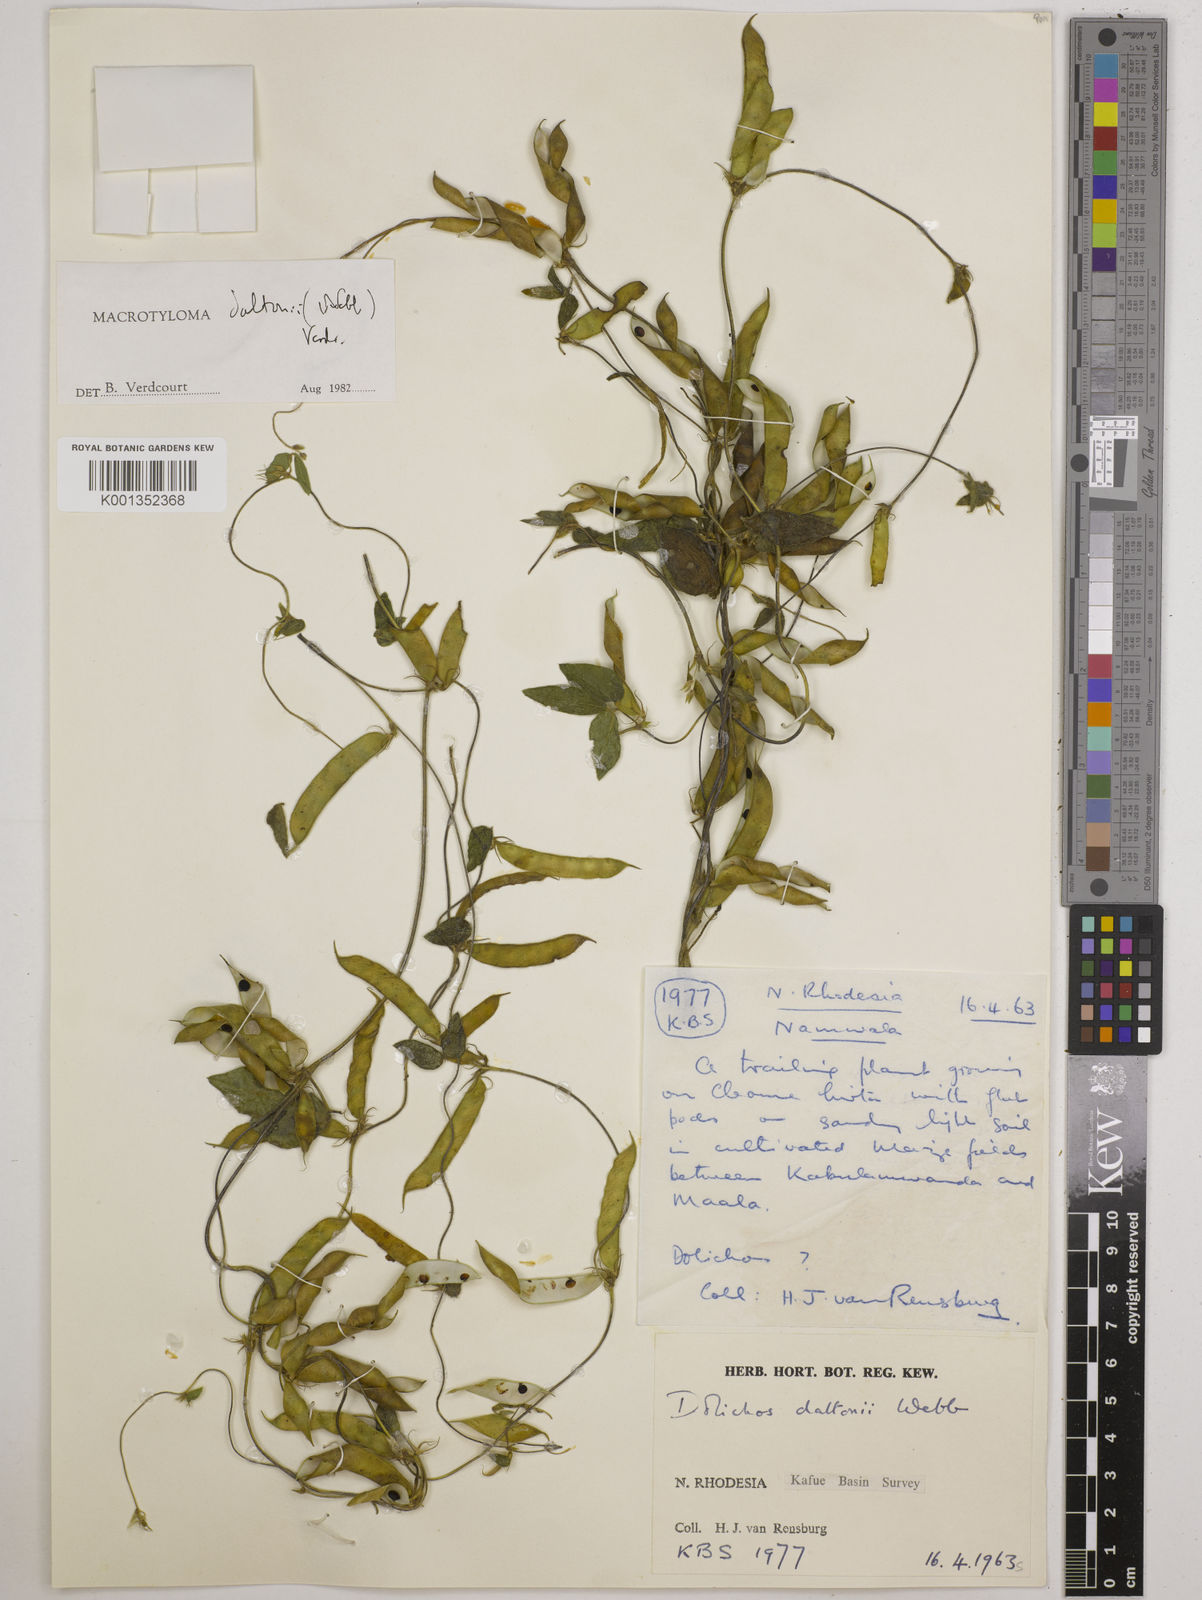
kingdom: Plantae
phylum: Tracheophyta
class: Magnoliopsida
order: Fabales
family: Fabaceae
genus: Macrotyloma
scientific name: Macrotyloma daltonii
